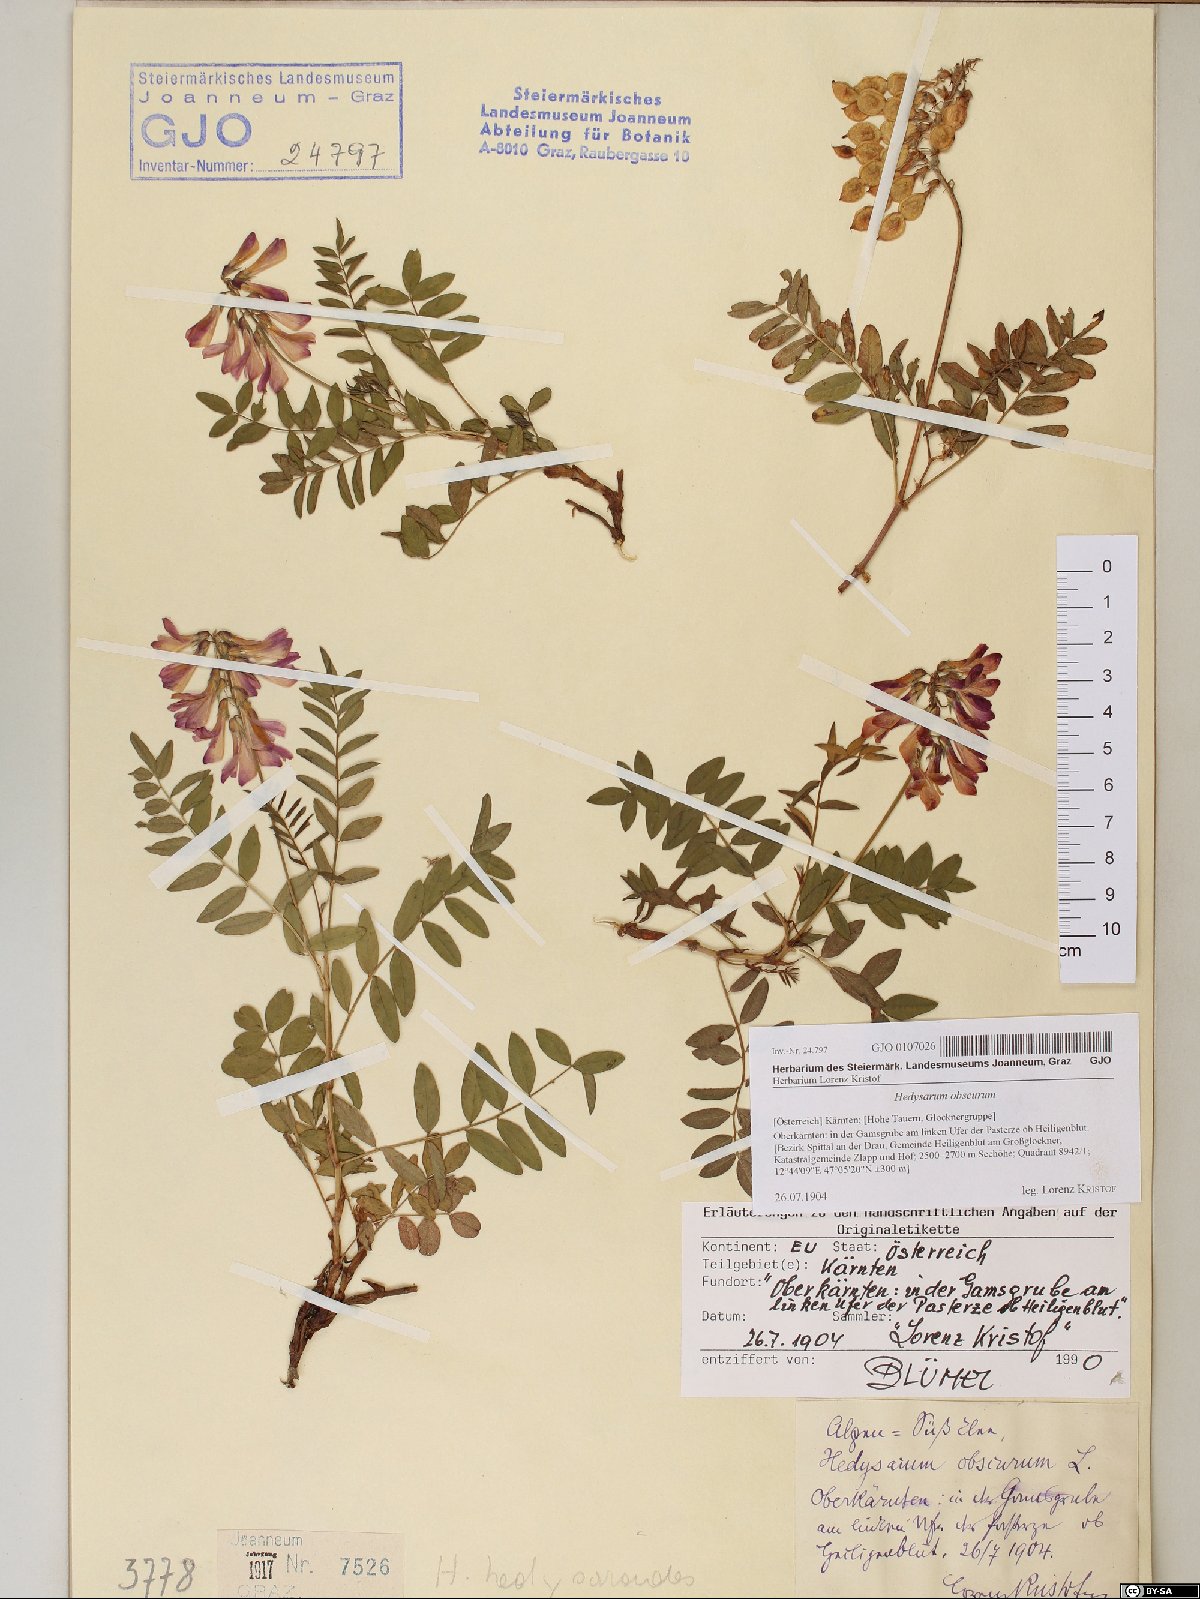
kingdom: Plantae
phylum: Tracheophyta
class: Magnoliopsida
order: Fabales
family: Fabaceae
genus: Hedysarum
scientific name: Hedysarum hedysaroides
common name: Alpine french-honeysuckle
